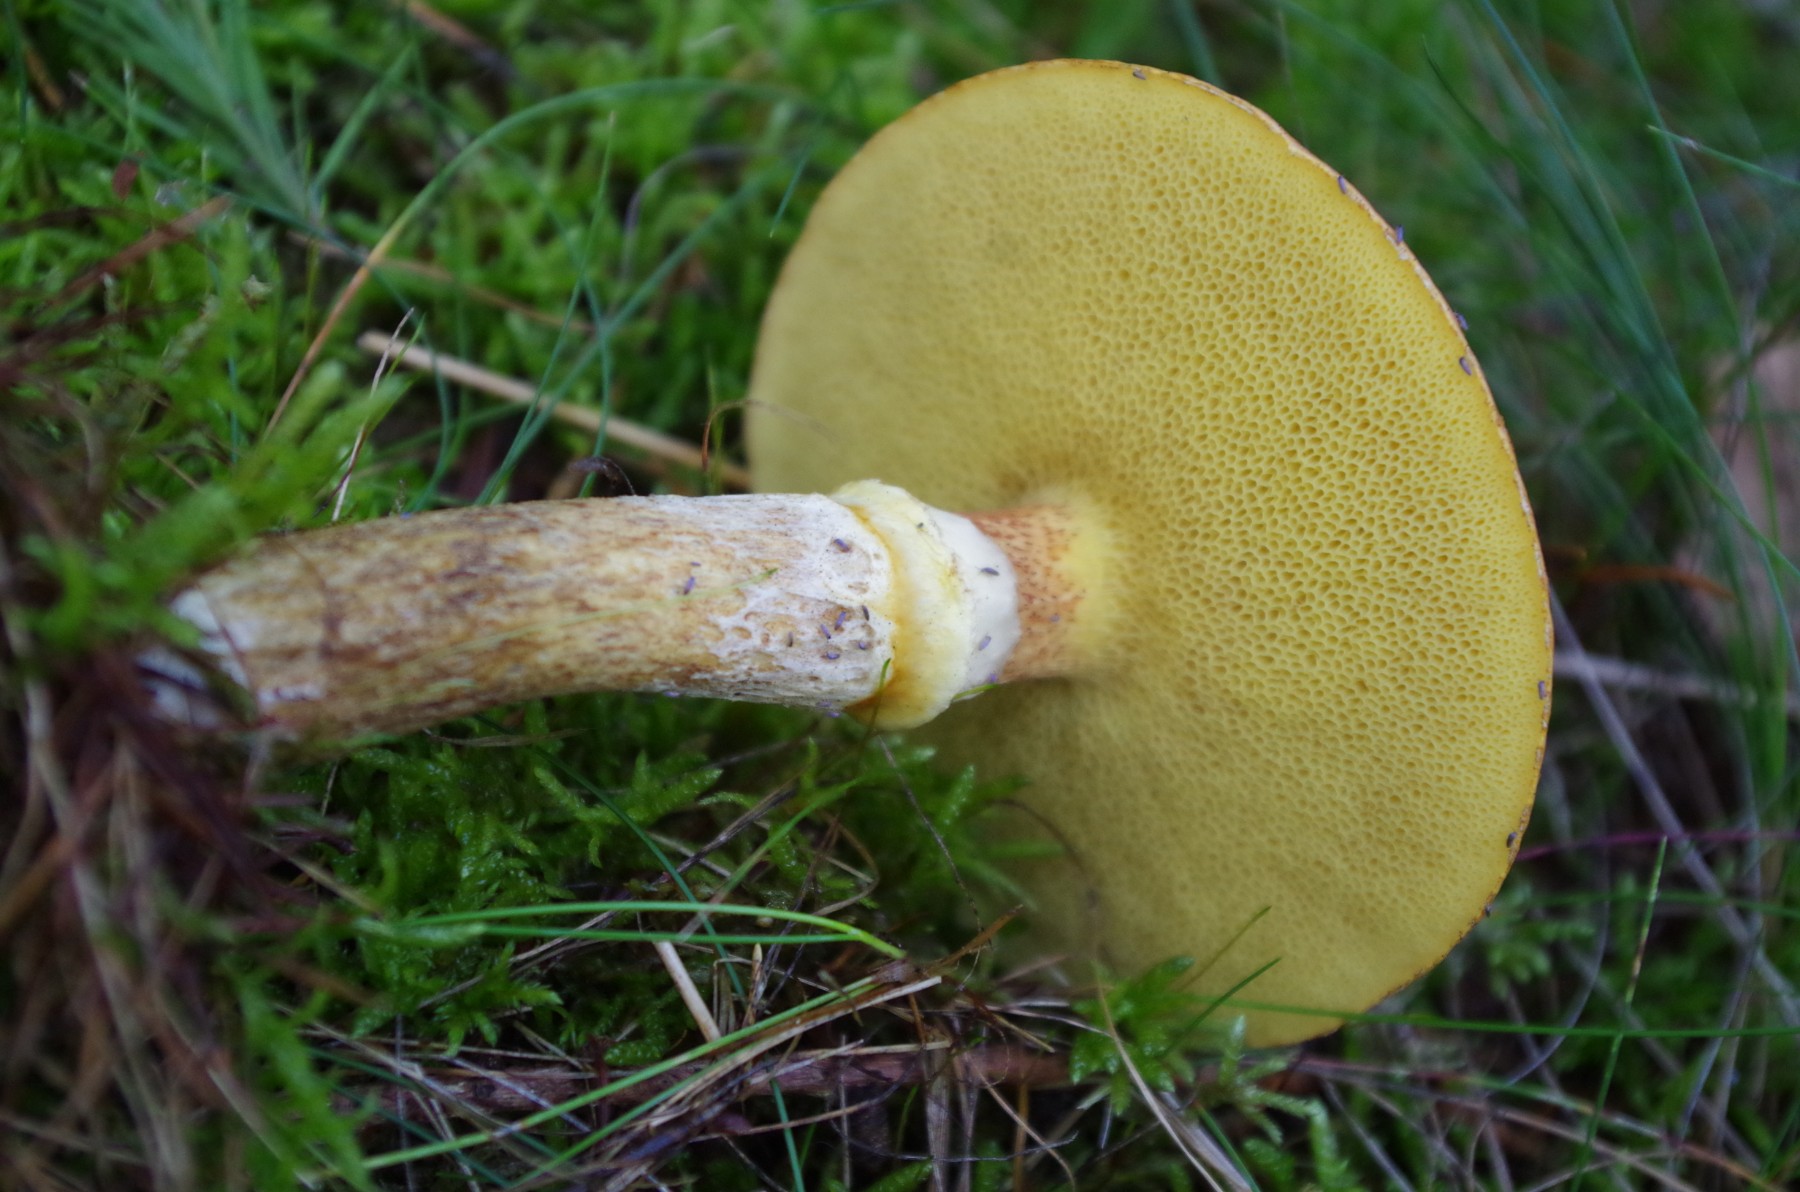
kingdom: Fungi
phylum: Basidiomycota
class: Agaricomycetes
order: Boletales
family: Suillaceae
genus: Suillus
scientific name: Suillus grevillei
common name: lærke-slimrørhat
